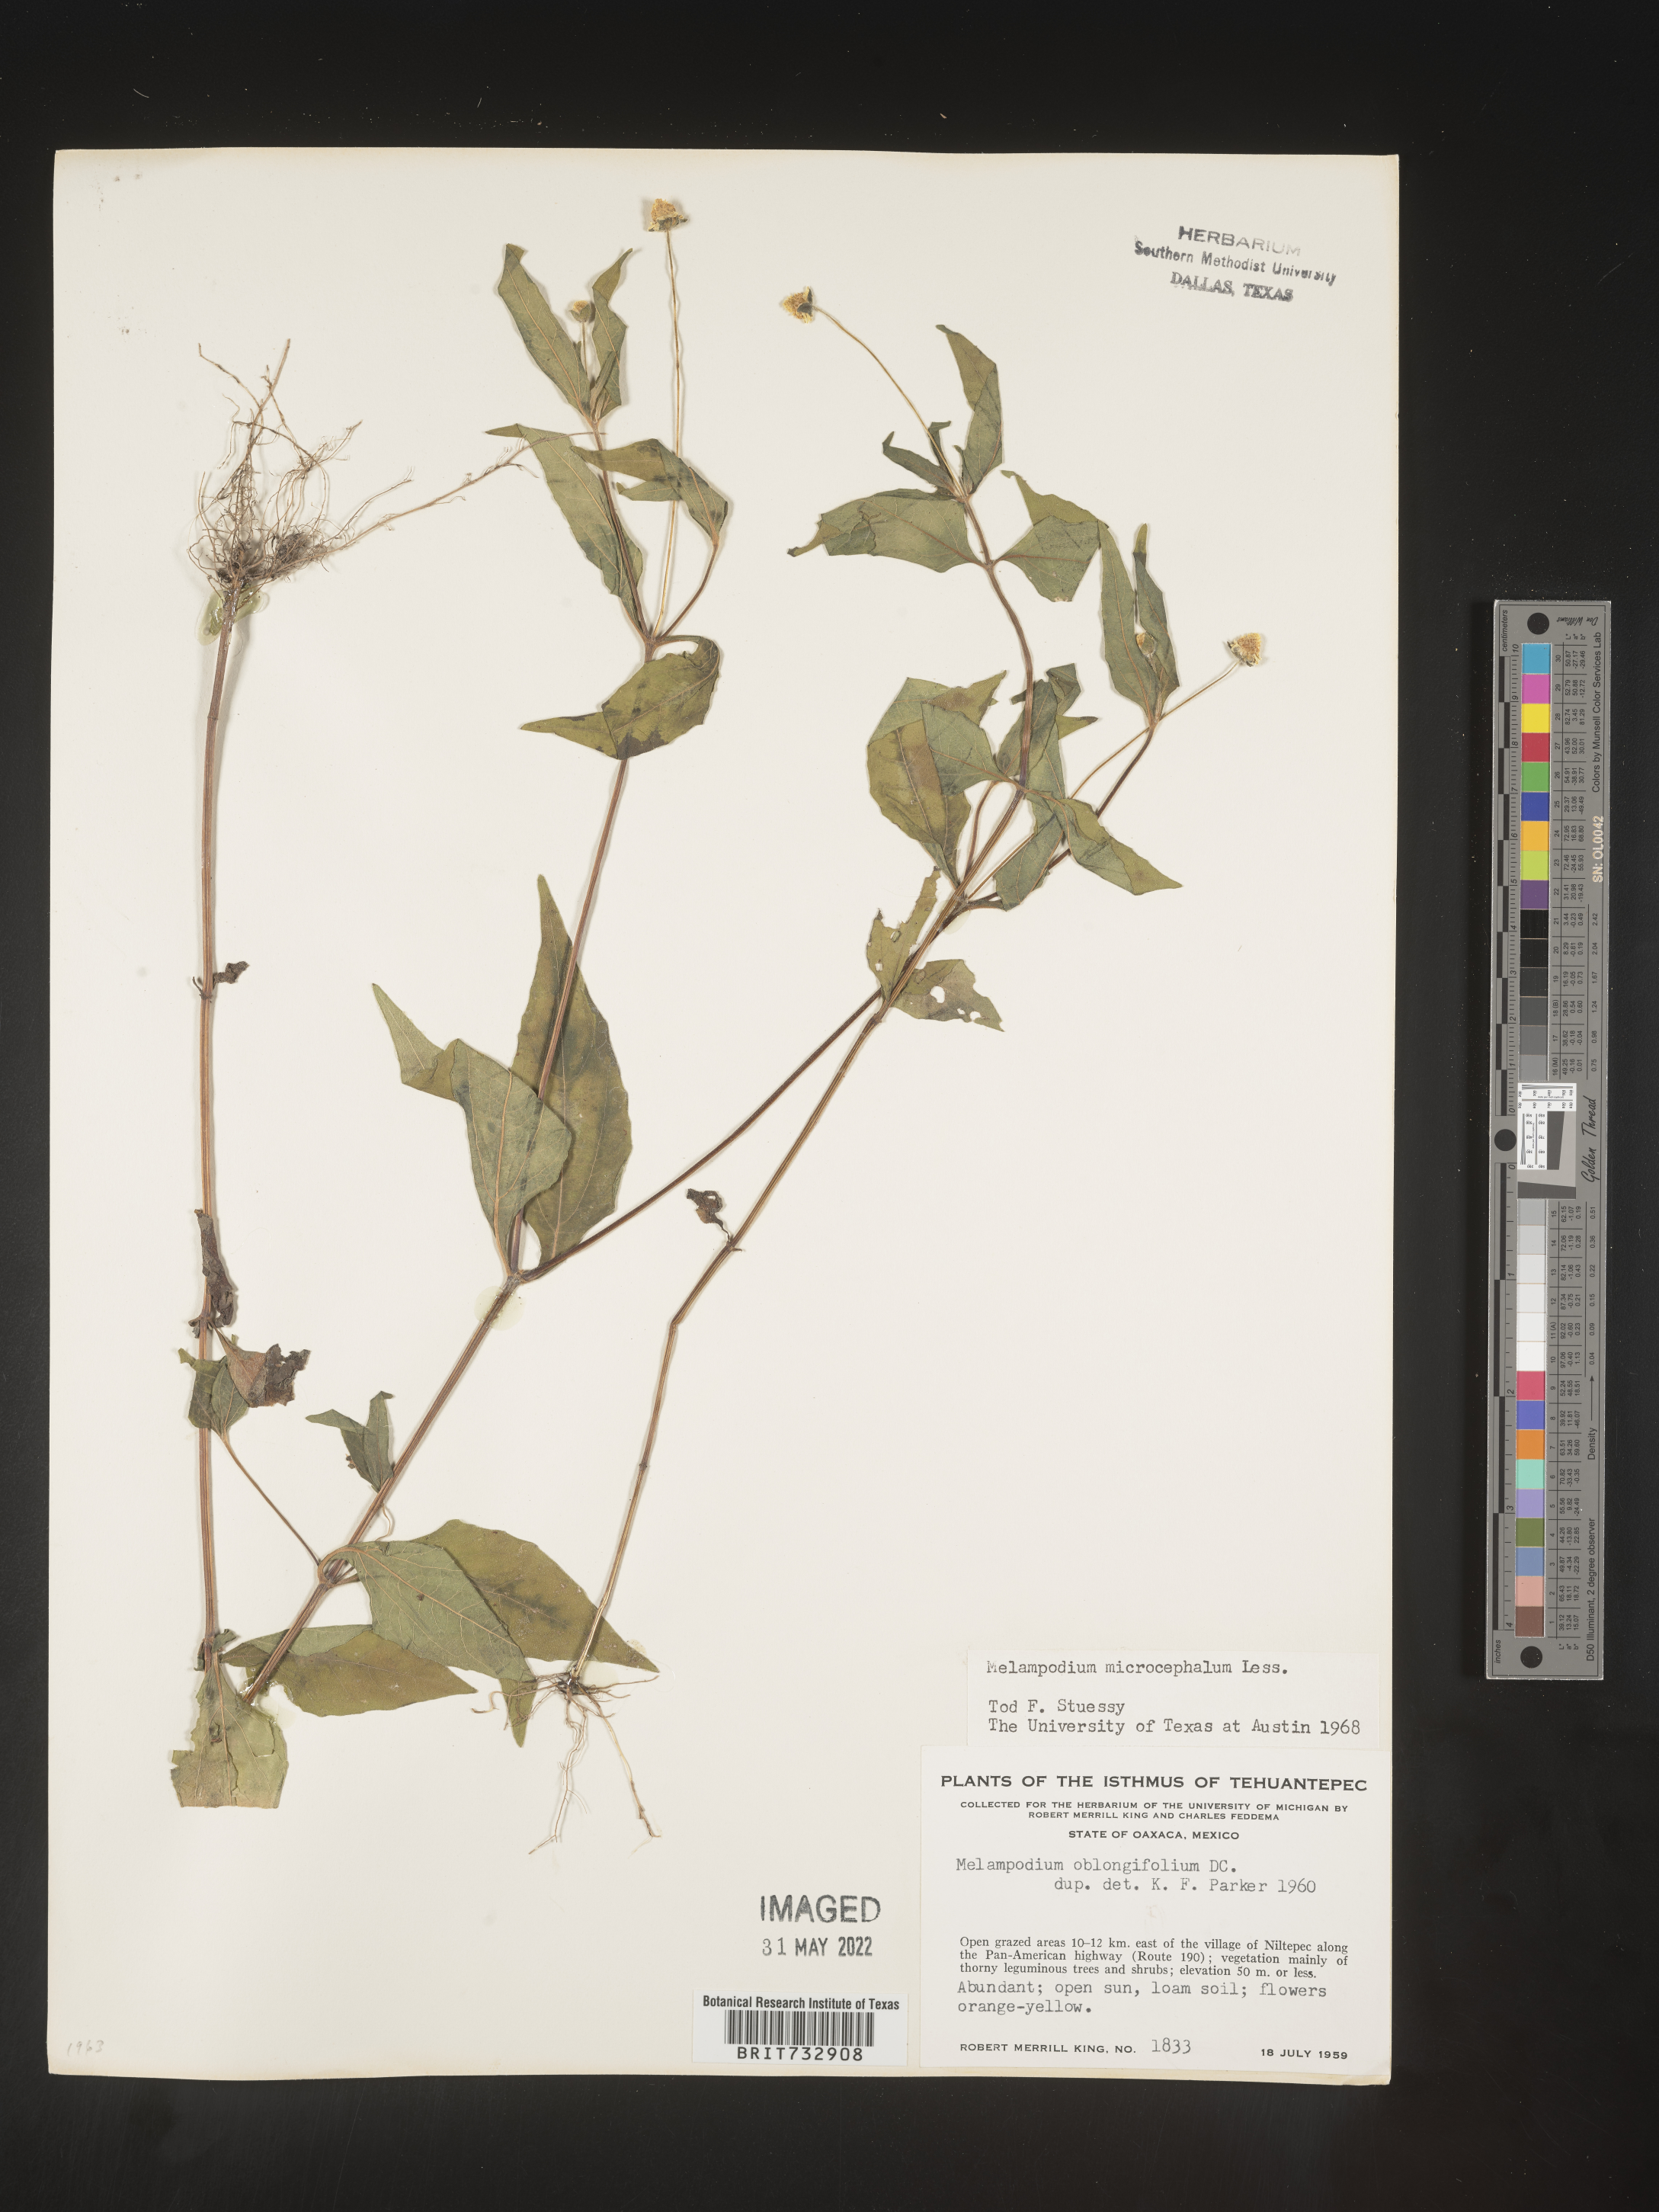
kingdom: Plantae
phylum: Tracheophyta
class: Magnoliopsida
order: Asterales
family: Asteraceae
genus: Melampodium
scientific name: Melampodium
